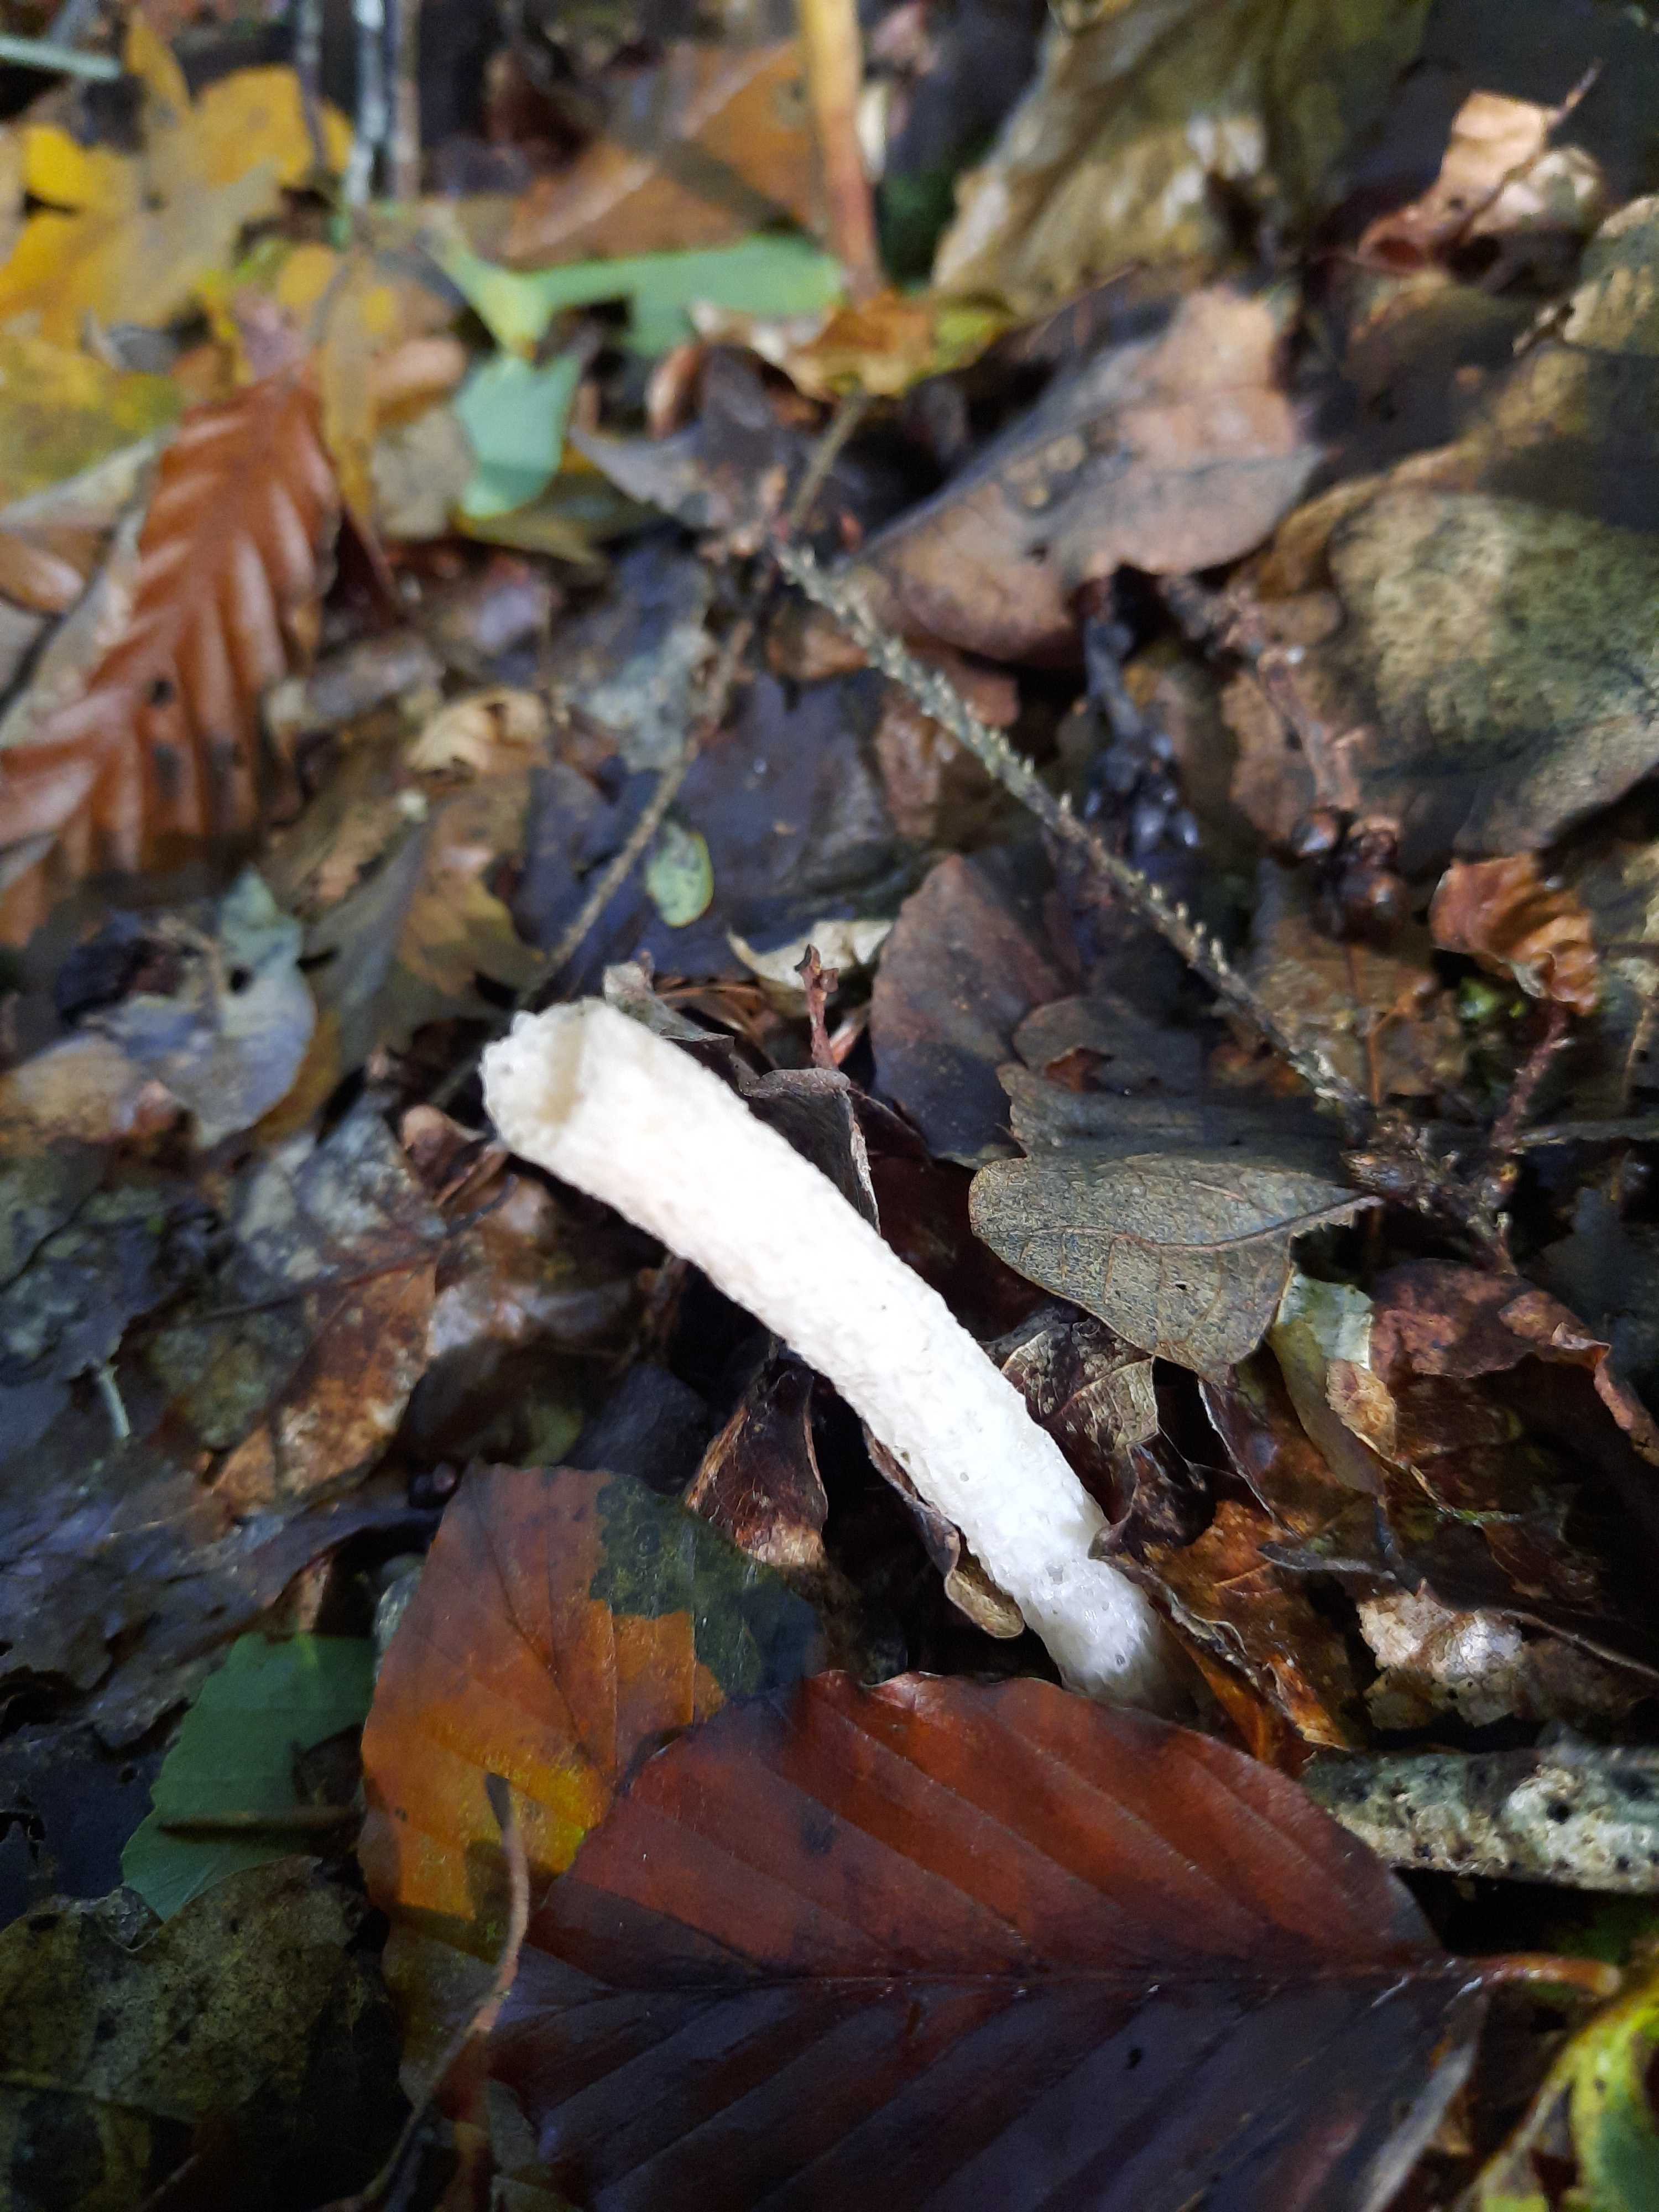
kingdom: Fungi
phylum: Basidiomycota
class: Agaricomycetes
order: Phallales
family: Phallaceae
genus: Mutinus
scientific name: Mutinus caninus
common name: hunde-stinksvamp
